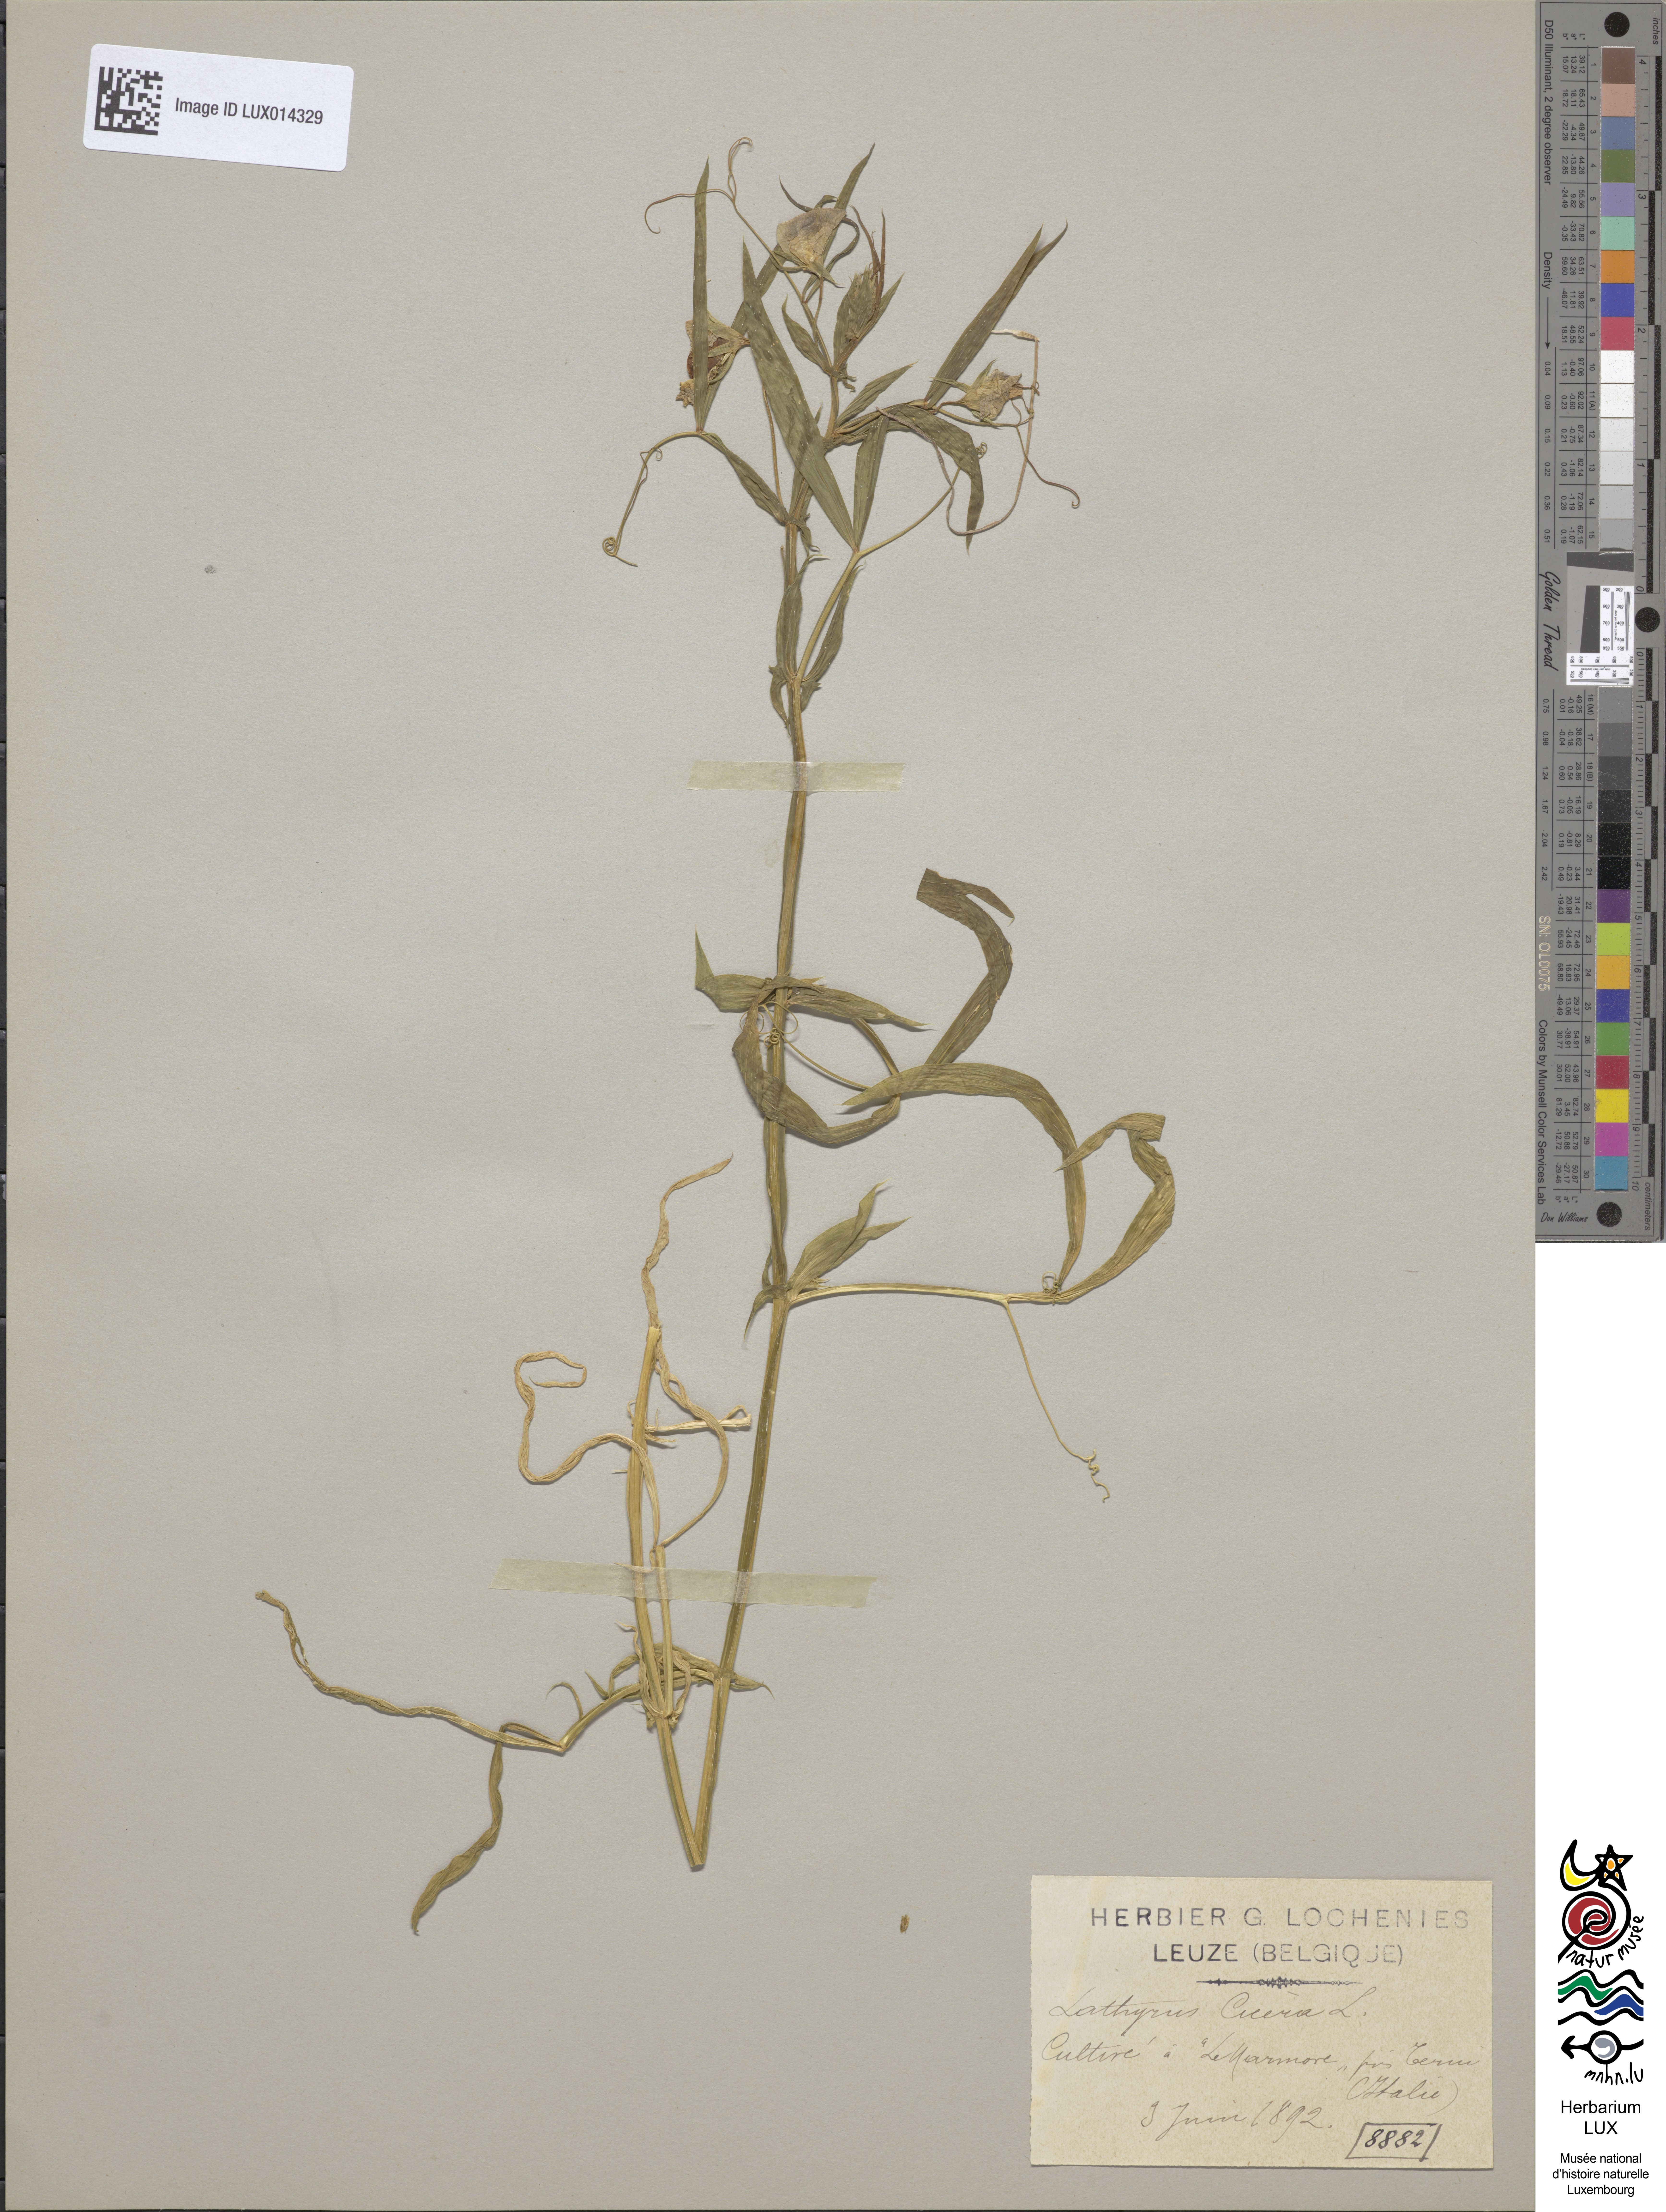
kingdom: Plantae
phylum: Tracheophyta
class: Magnoliopsida
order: Fabales
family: Fabaceae
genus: Lathyrus
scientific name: Lathyrus cicera
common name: Red vetchling
